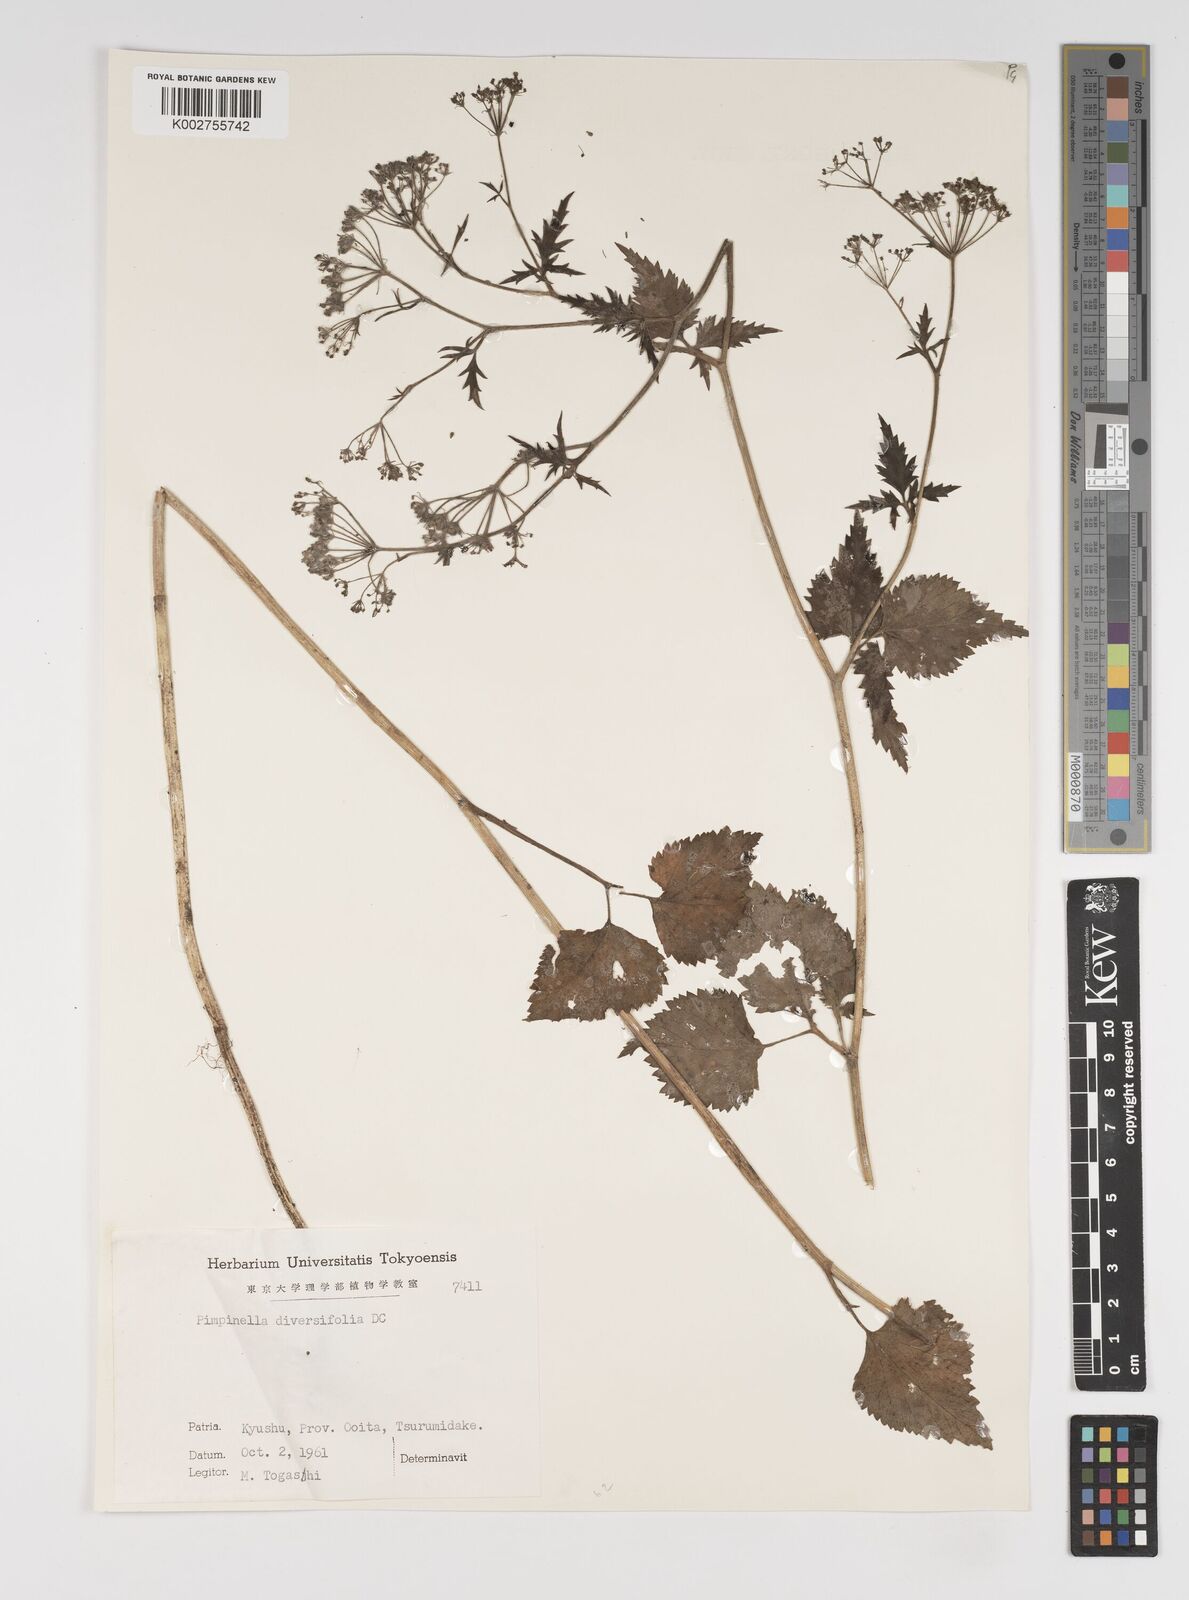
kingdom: Plantae
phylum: Tracheophyta
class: Magnoliopsida
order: Apiales
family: Apiaceae
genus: Pimpinella
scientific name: Pimpinella diversifolia
